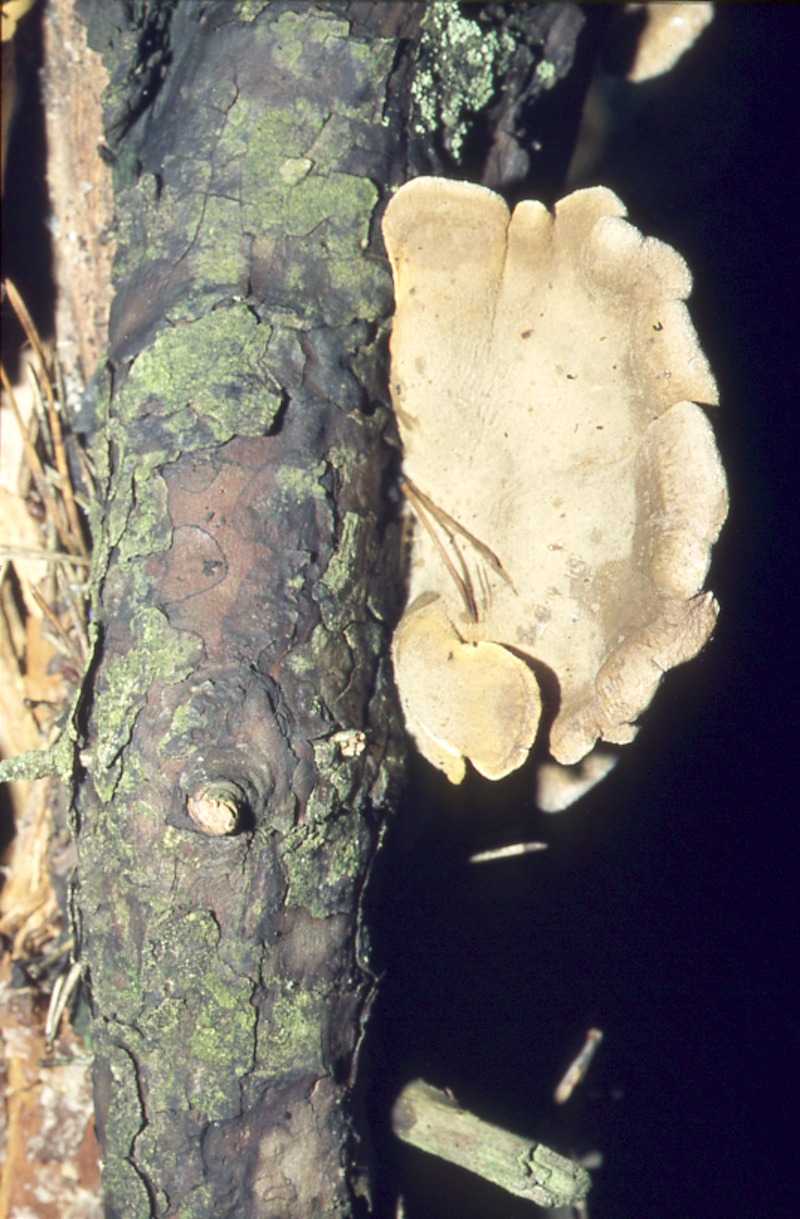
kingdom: Fungi
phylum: Basidiomycota
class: Agaricomycetes
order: Boletales
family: Tapinellaceae
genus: Tapinella
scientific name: Tapinella panuoides
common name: Oyster rollrim
